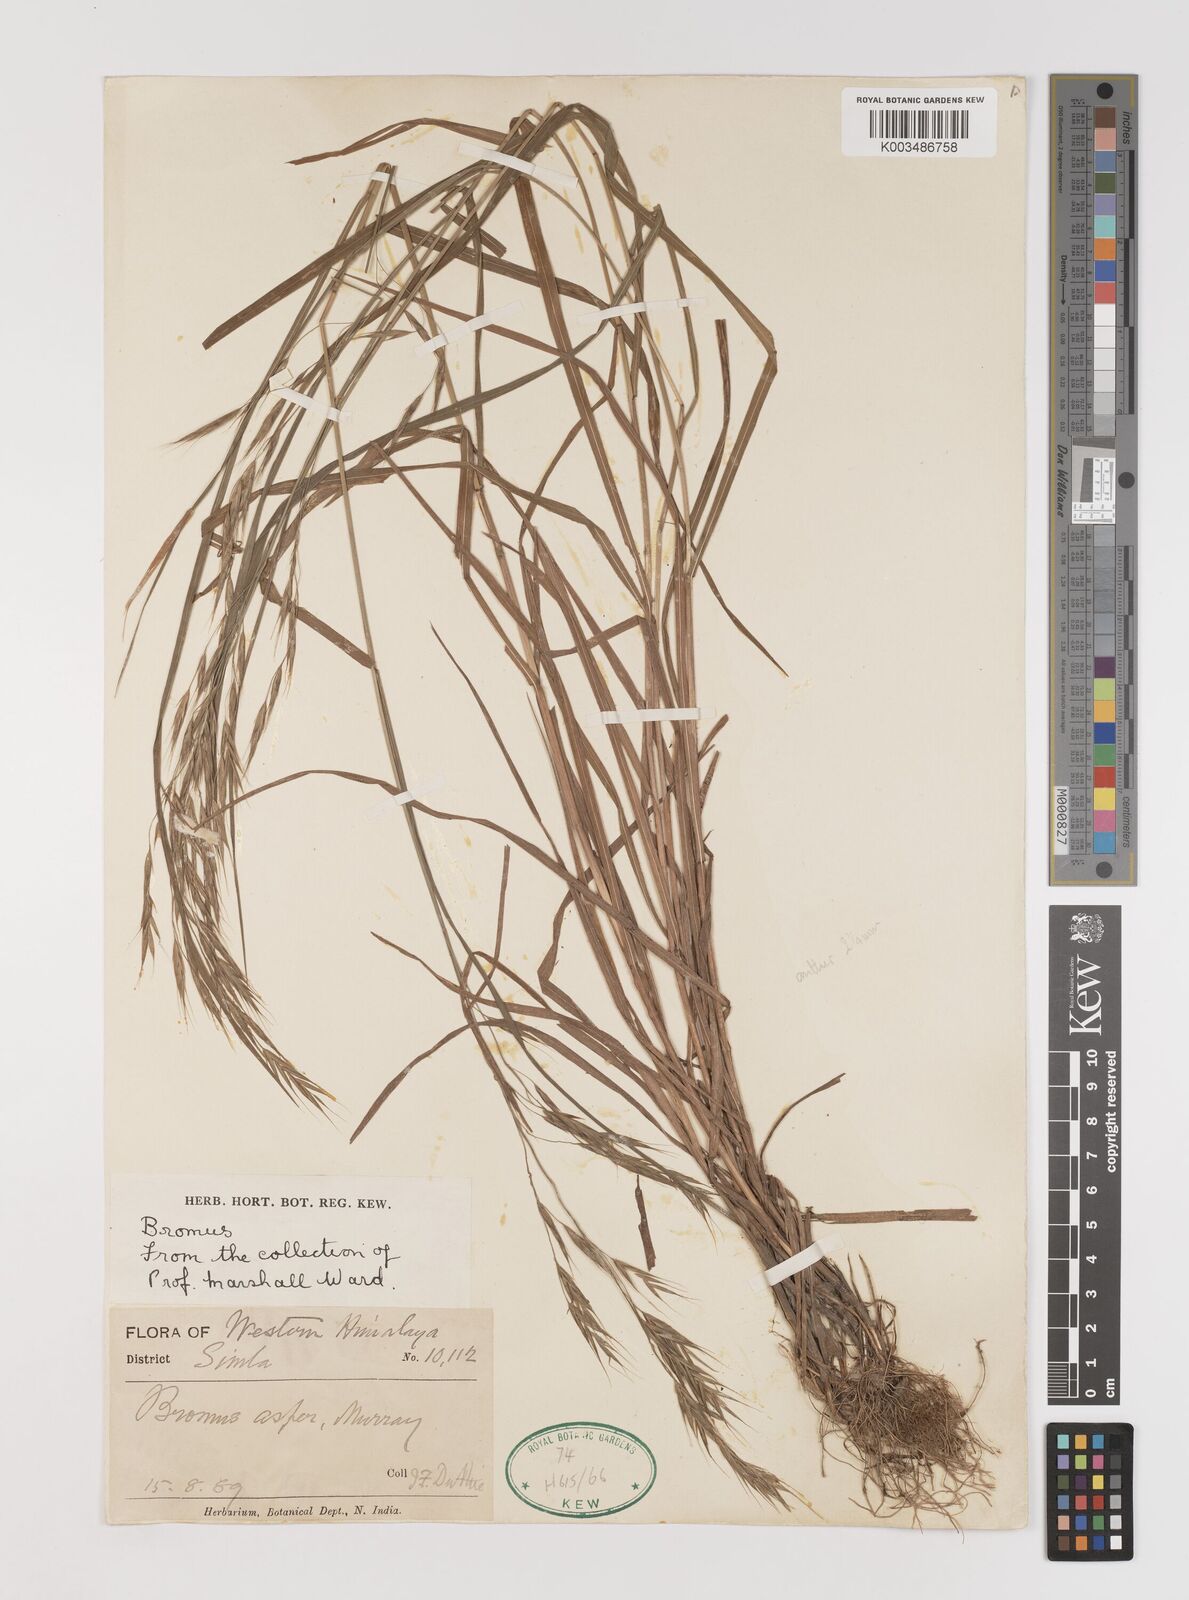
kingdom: Plantae
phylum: Tracheophyta
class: Liliopsida
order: Poales
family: Poaceae
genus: Brachypodium
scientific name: Brachypodium retusum
